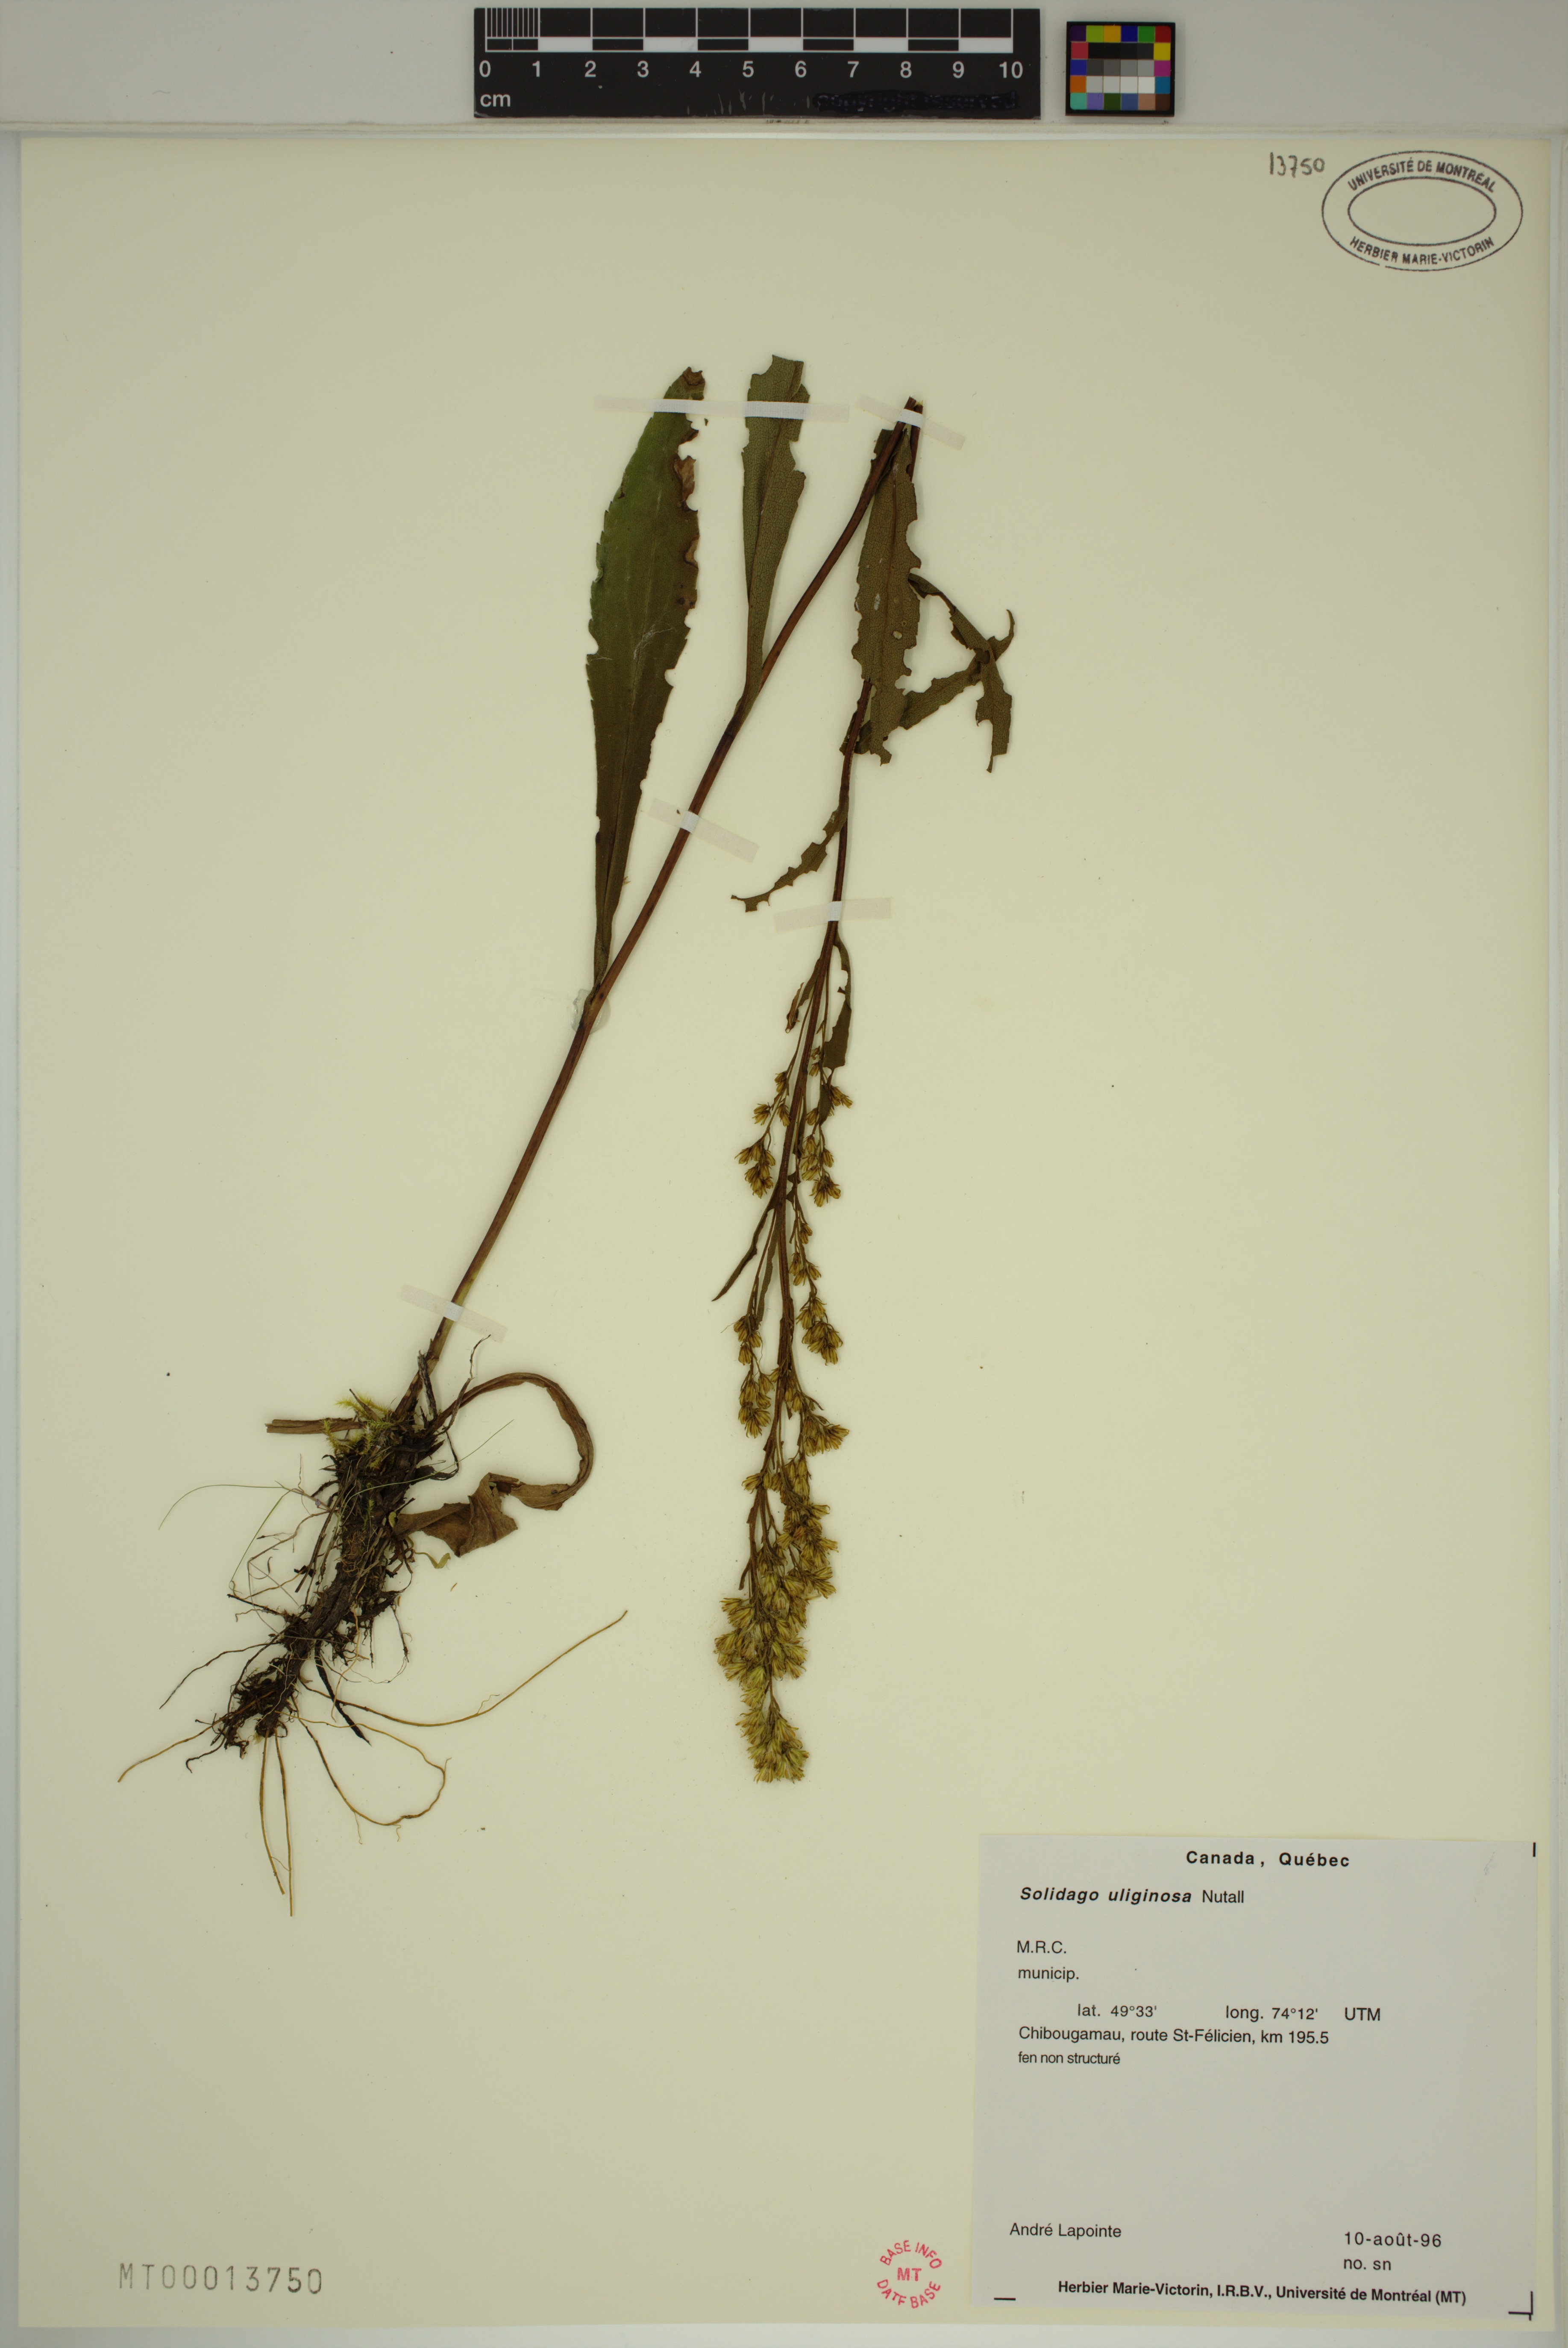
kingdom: Plantae
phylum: Tracheophyta
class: Magnoliopsida
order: Asterales
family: Asteraceae
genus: Solidago
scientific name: Solidago uliginosa
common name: Bog goldenrod
